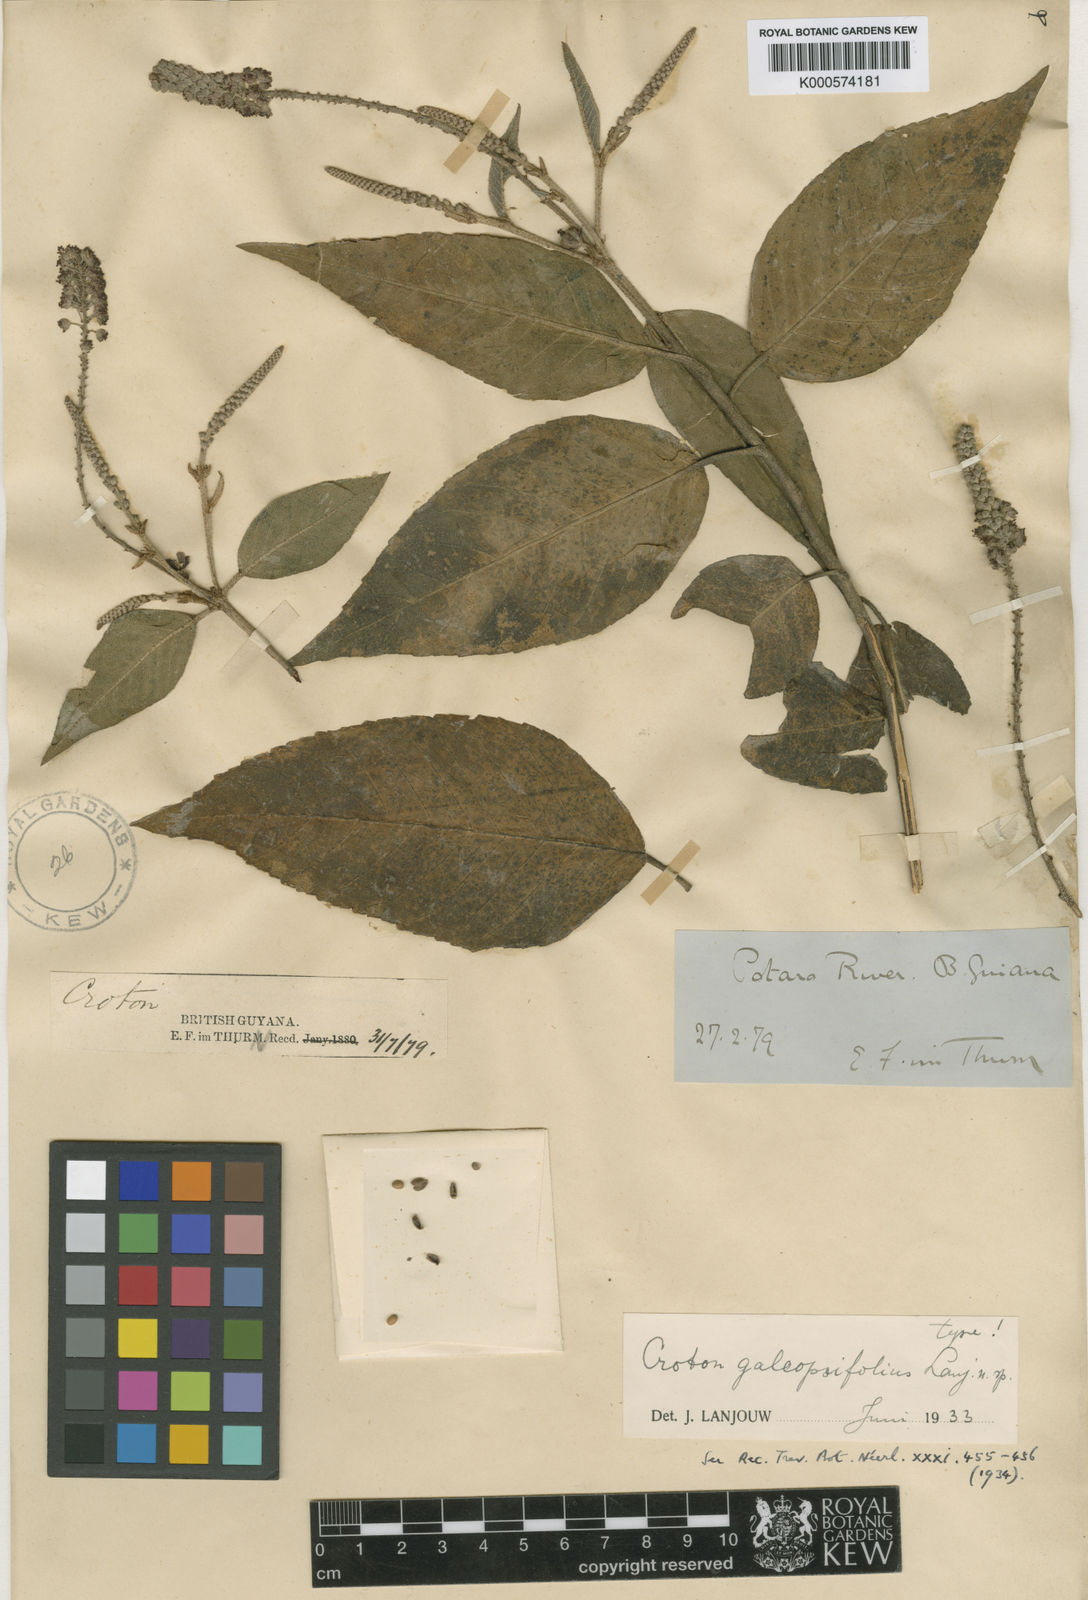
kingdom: Plantae
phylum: Tracheophyta
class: Magnoliopsida
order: Malpighiales
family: Euphorbiaceae
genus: Croton
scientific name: Croton hostmannii
